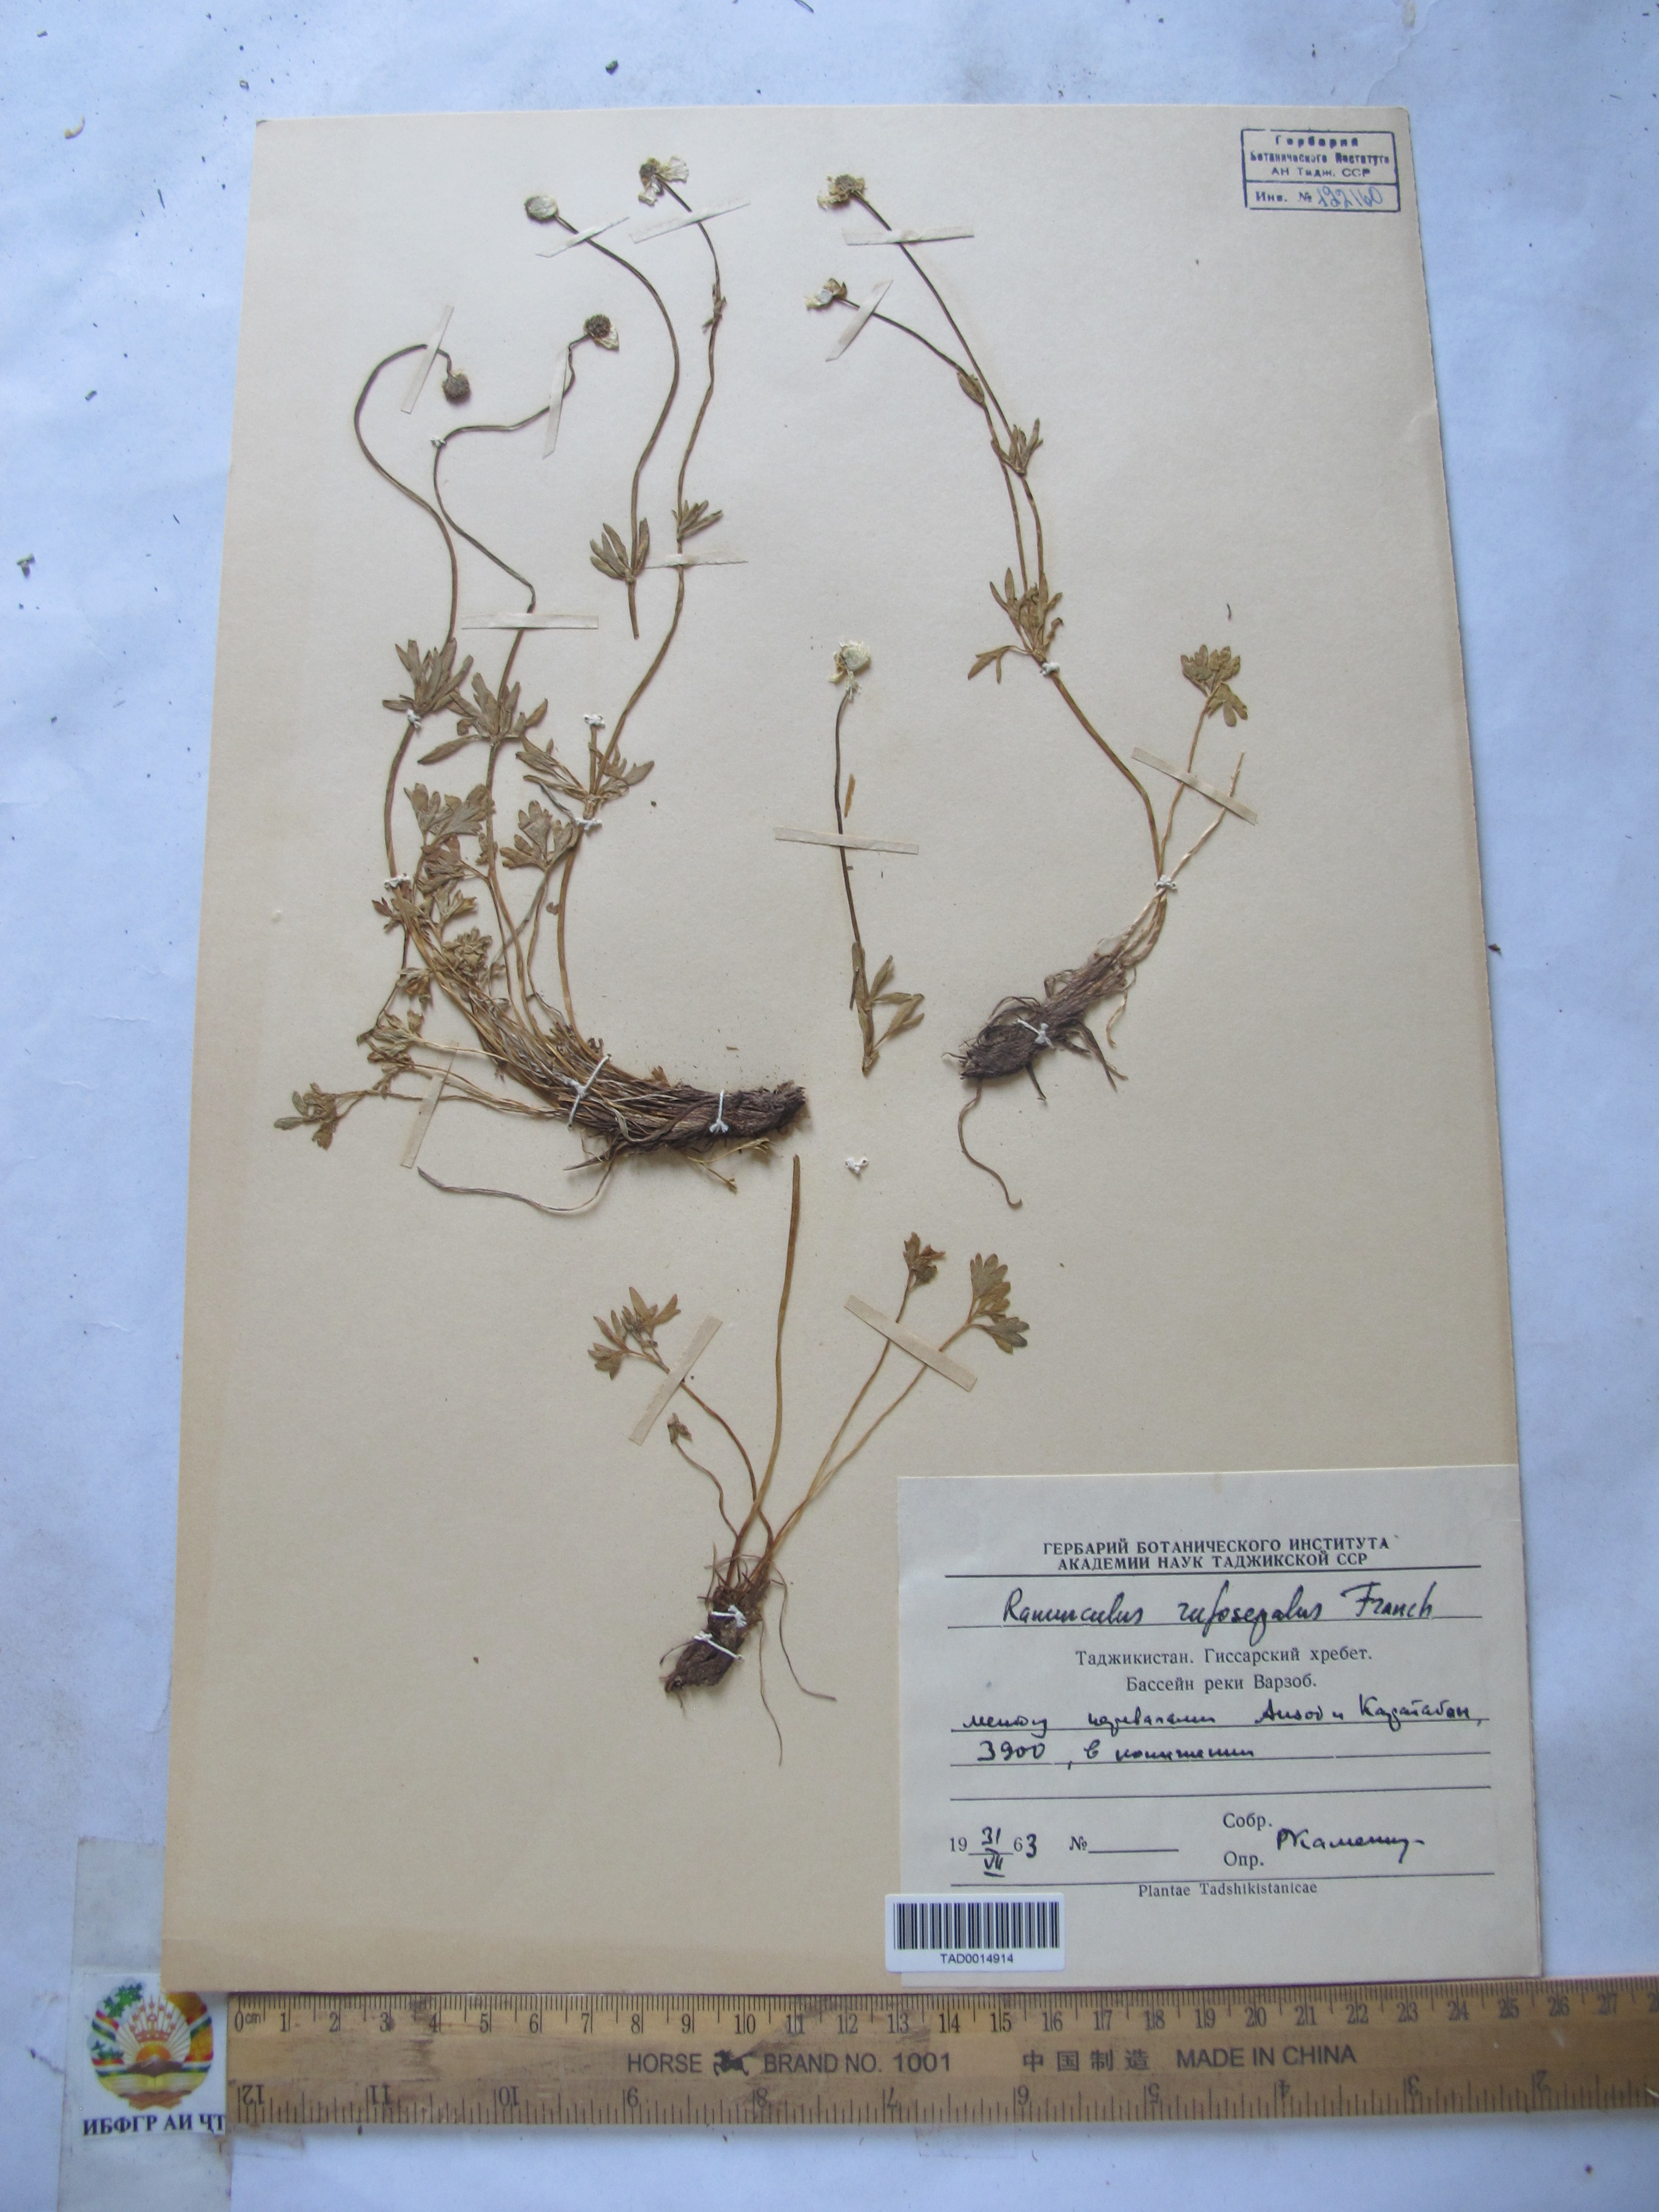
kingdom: Plantae
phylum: Tracheophyta
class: Magnoliopsida
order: Ranunculales
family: Ranunculaceae
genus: Ranunculus
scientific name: Ranunculus rufosepalus
